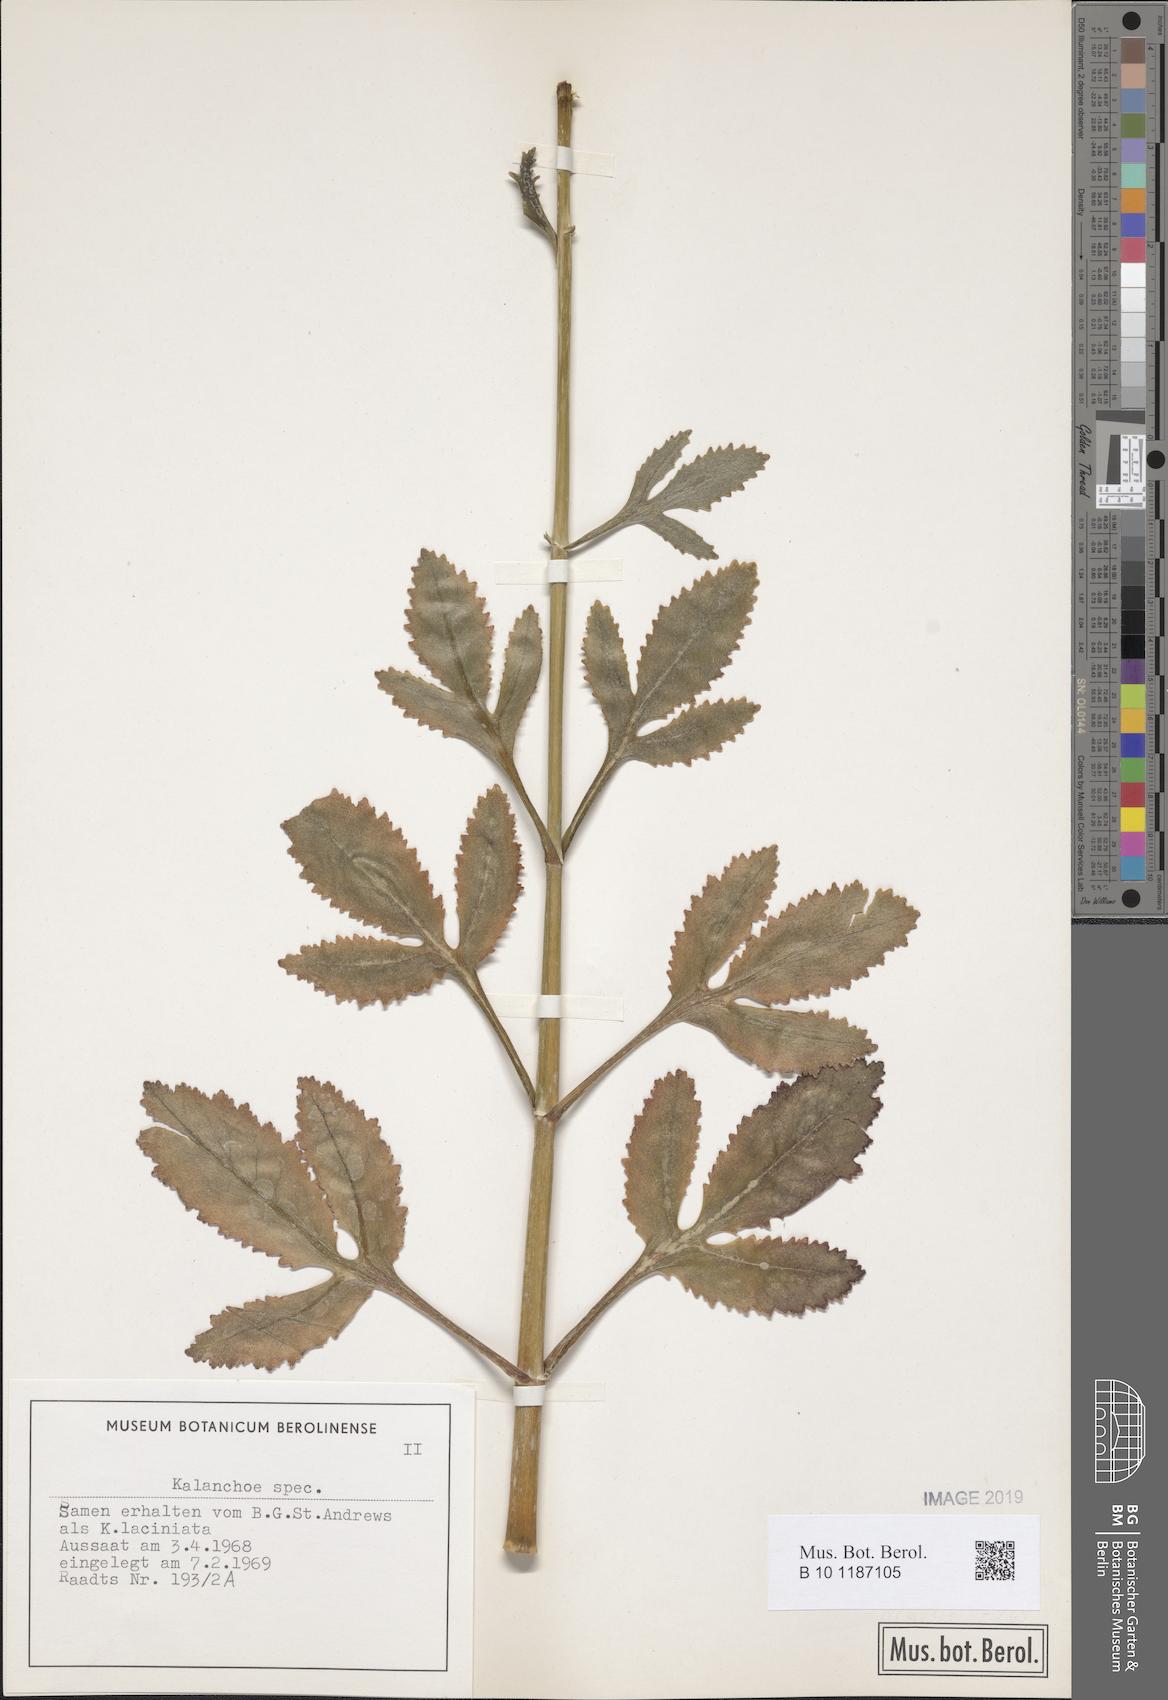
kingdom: Plantae
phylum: Tracheophyta
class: Magnoliopsida
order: Saxifragales
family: Crassulaceae
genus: Kalanchoe
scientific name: Kalanchoe
